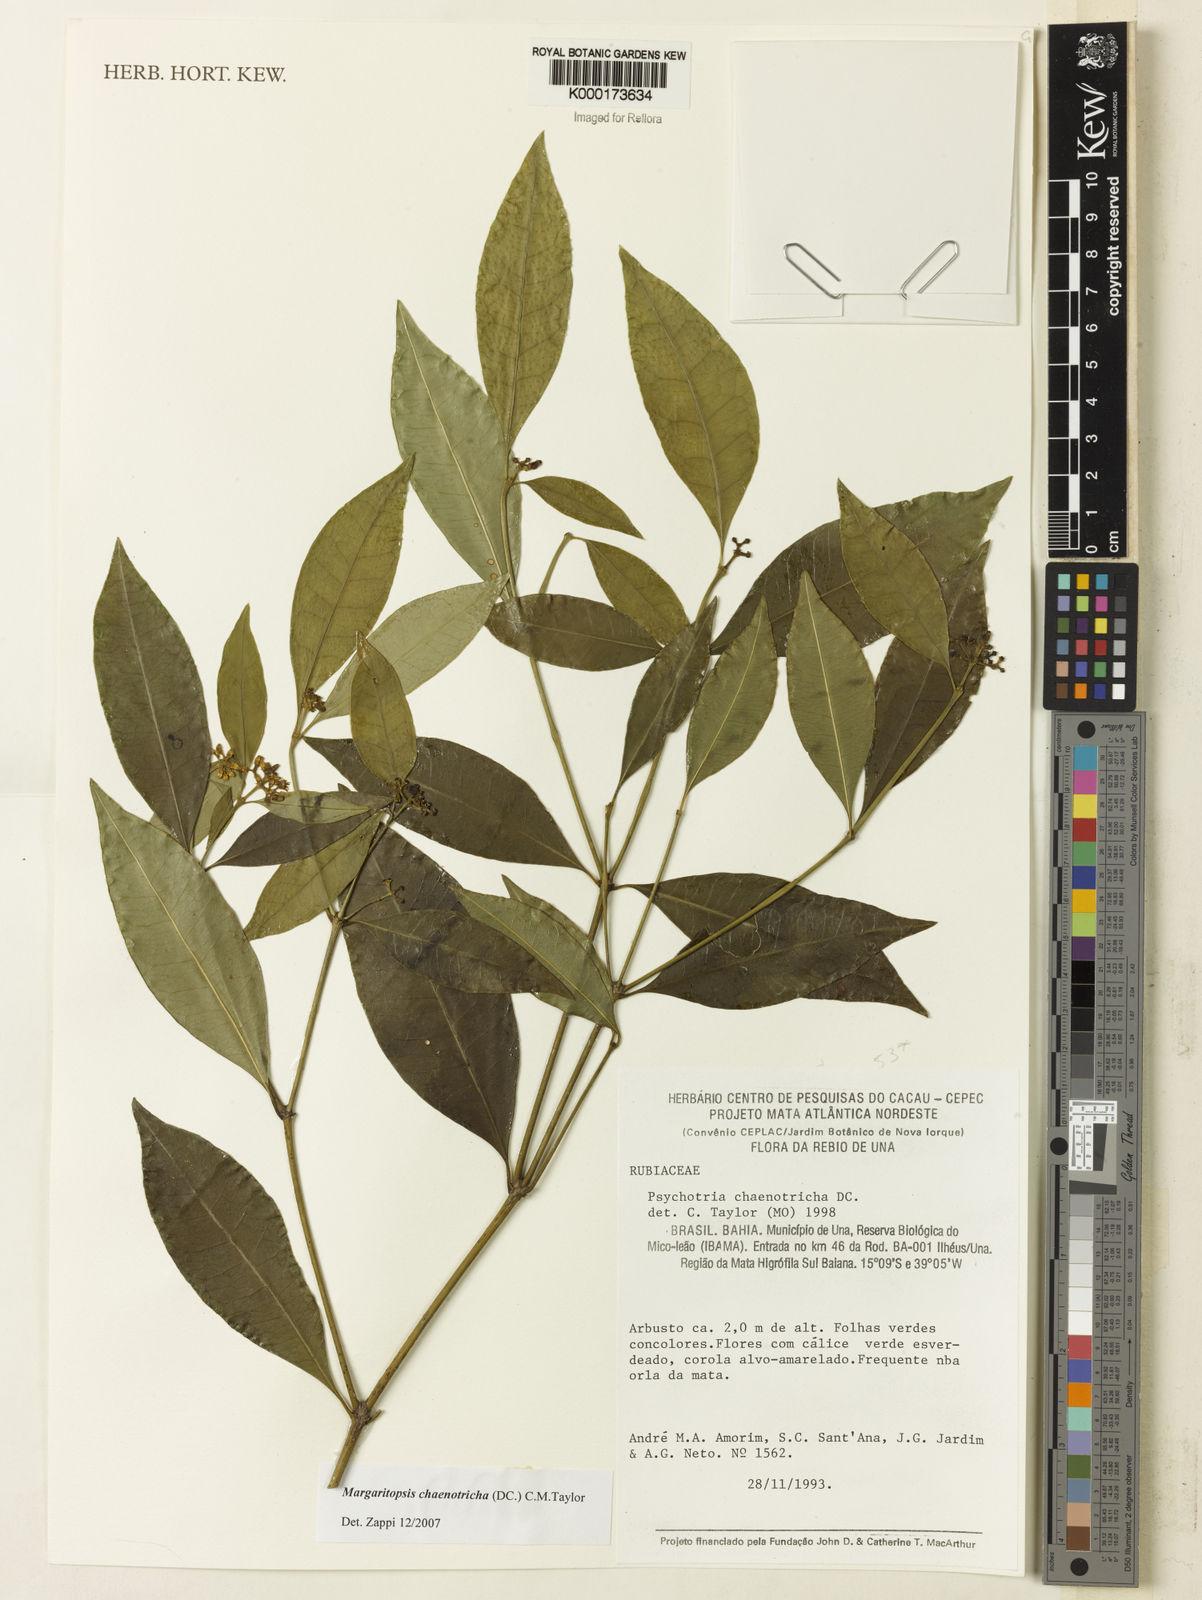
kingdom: Plantae
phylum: Tracheophyta
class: Magnoliopsida
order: Gentianales
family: Rubiaceae
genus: Eumachia
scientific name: Eumachia chaenotricha
